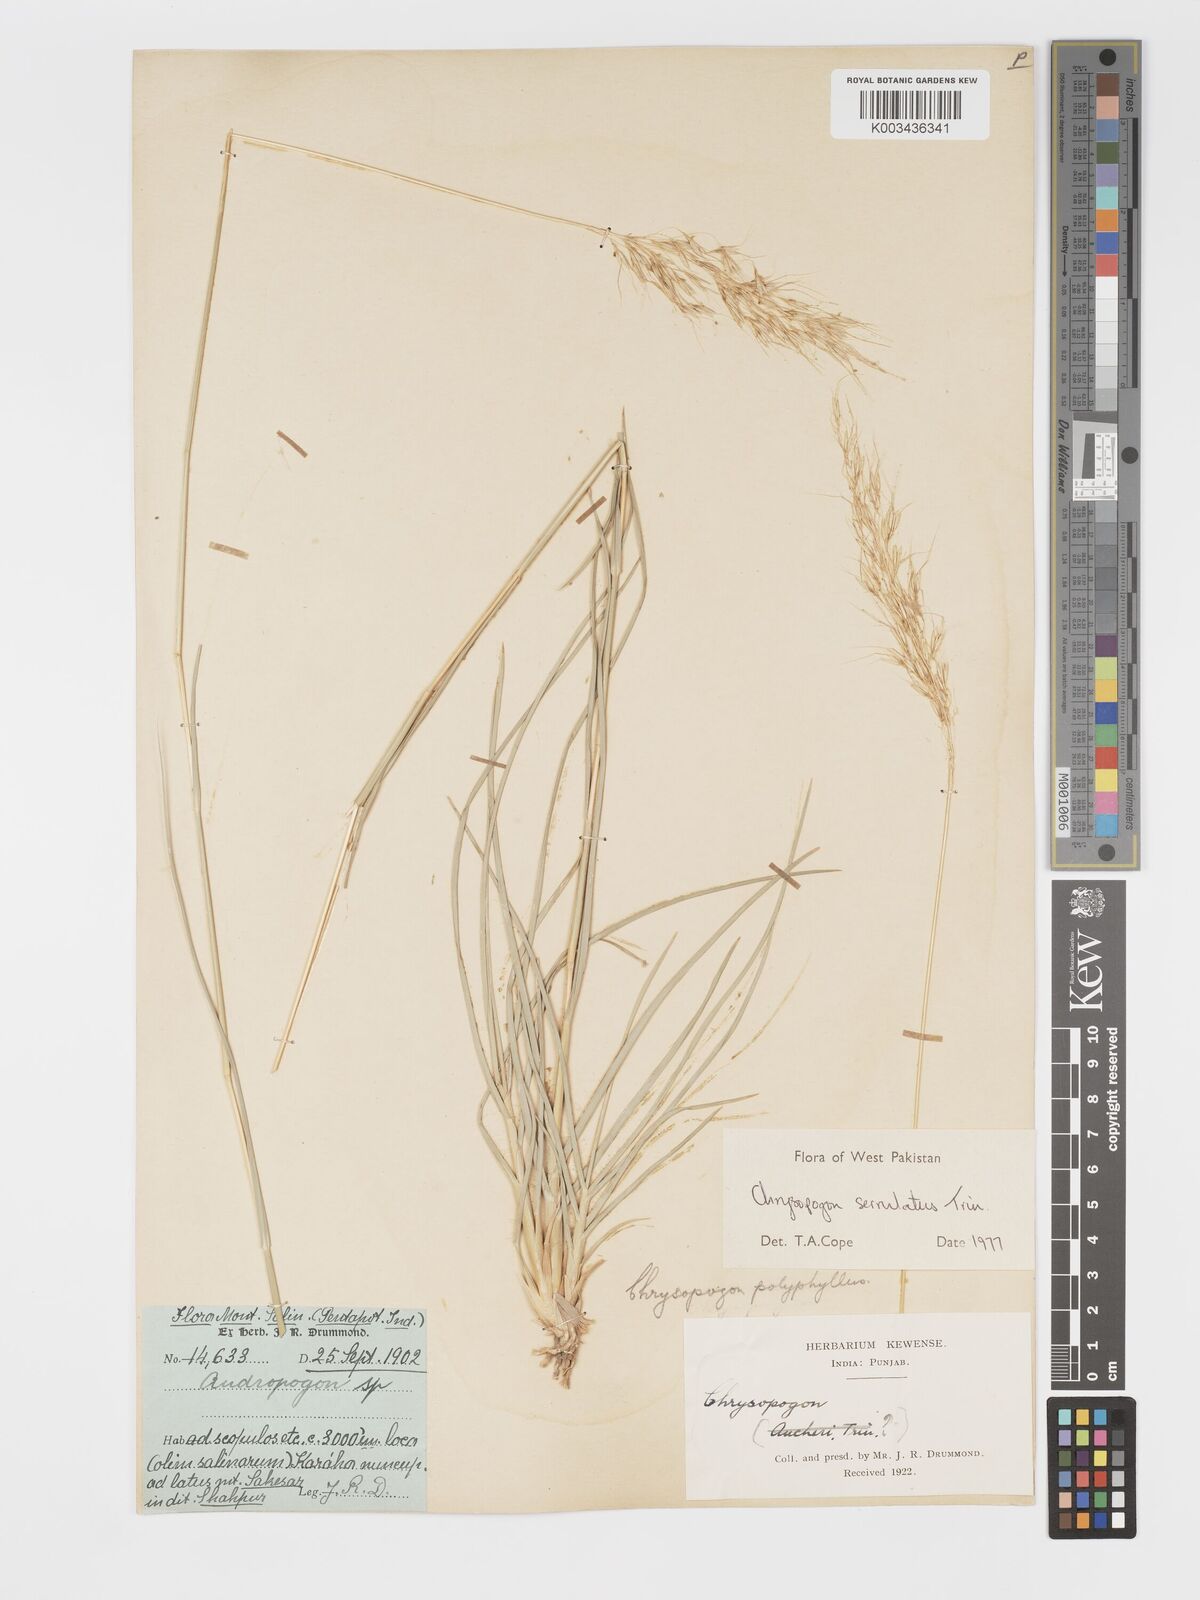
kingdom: Plantae
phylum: Tracheophyta
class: Liliopsida
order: Poales
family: Poaceae
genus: Chrysopogon
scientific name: Chrysopogon serrulatus
